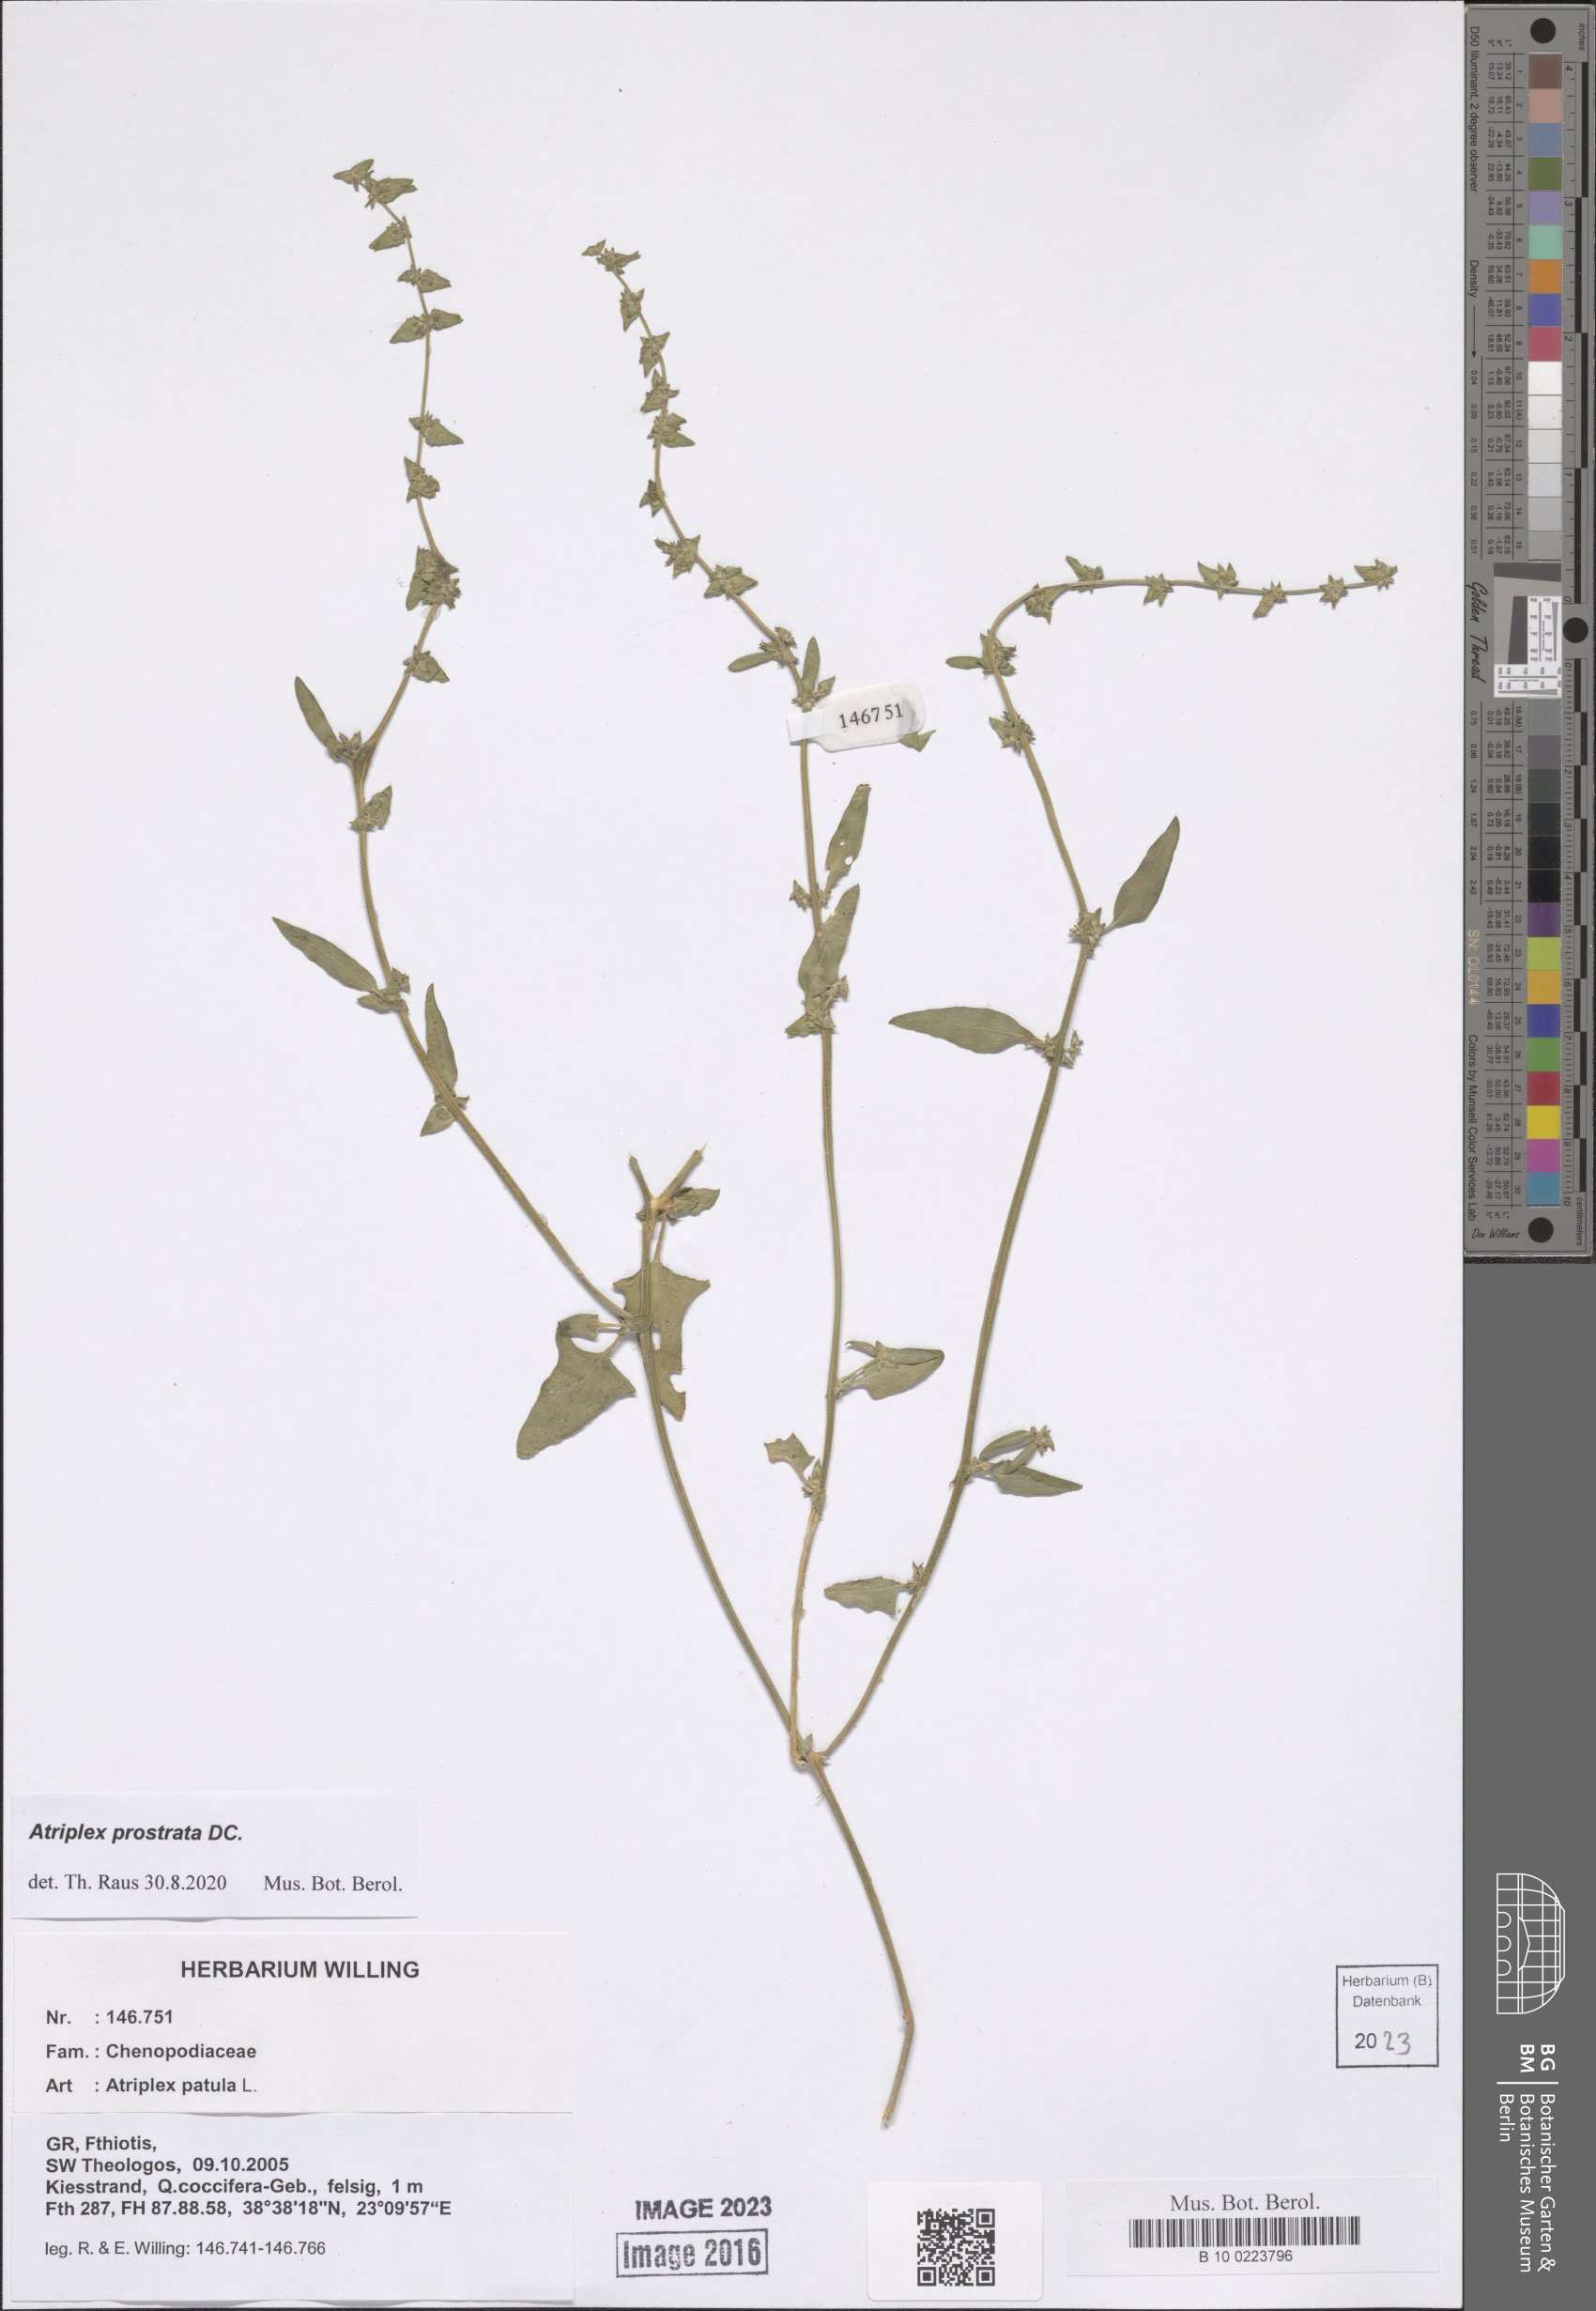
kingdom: Plantae
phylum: Tracheophyta
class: Magnoliopsida
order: Caryophyllales
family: Amaranthaceae
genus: Atriplex
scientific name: Atriplex prostrata
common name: Spear-leaved orache
